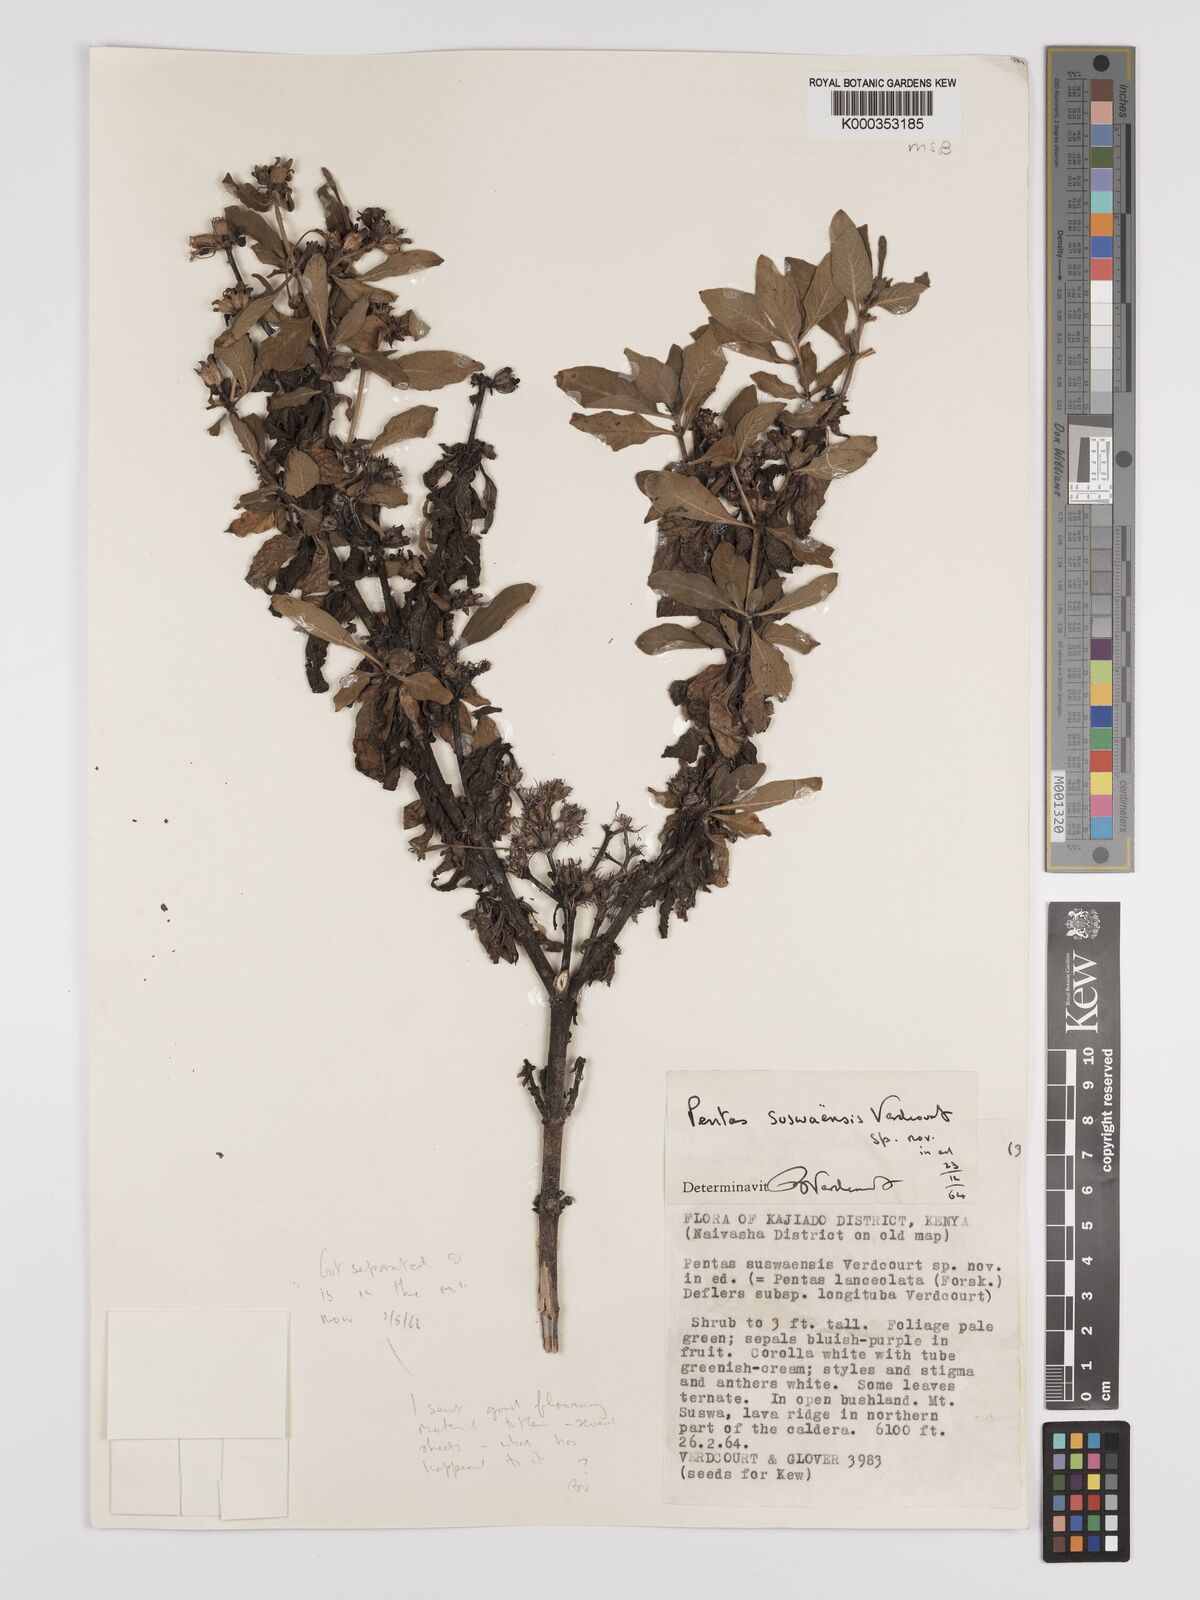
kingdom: Plantae
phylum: Tracheophyta
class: Magnoliopsida
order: Gentianales
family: Rubiaceae
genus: Pentas
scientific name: Pentas suswaensis
